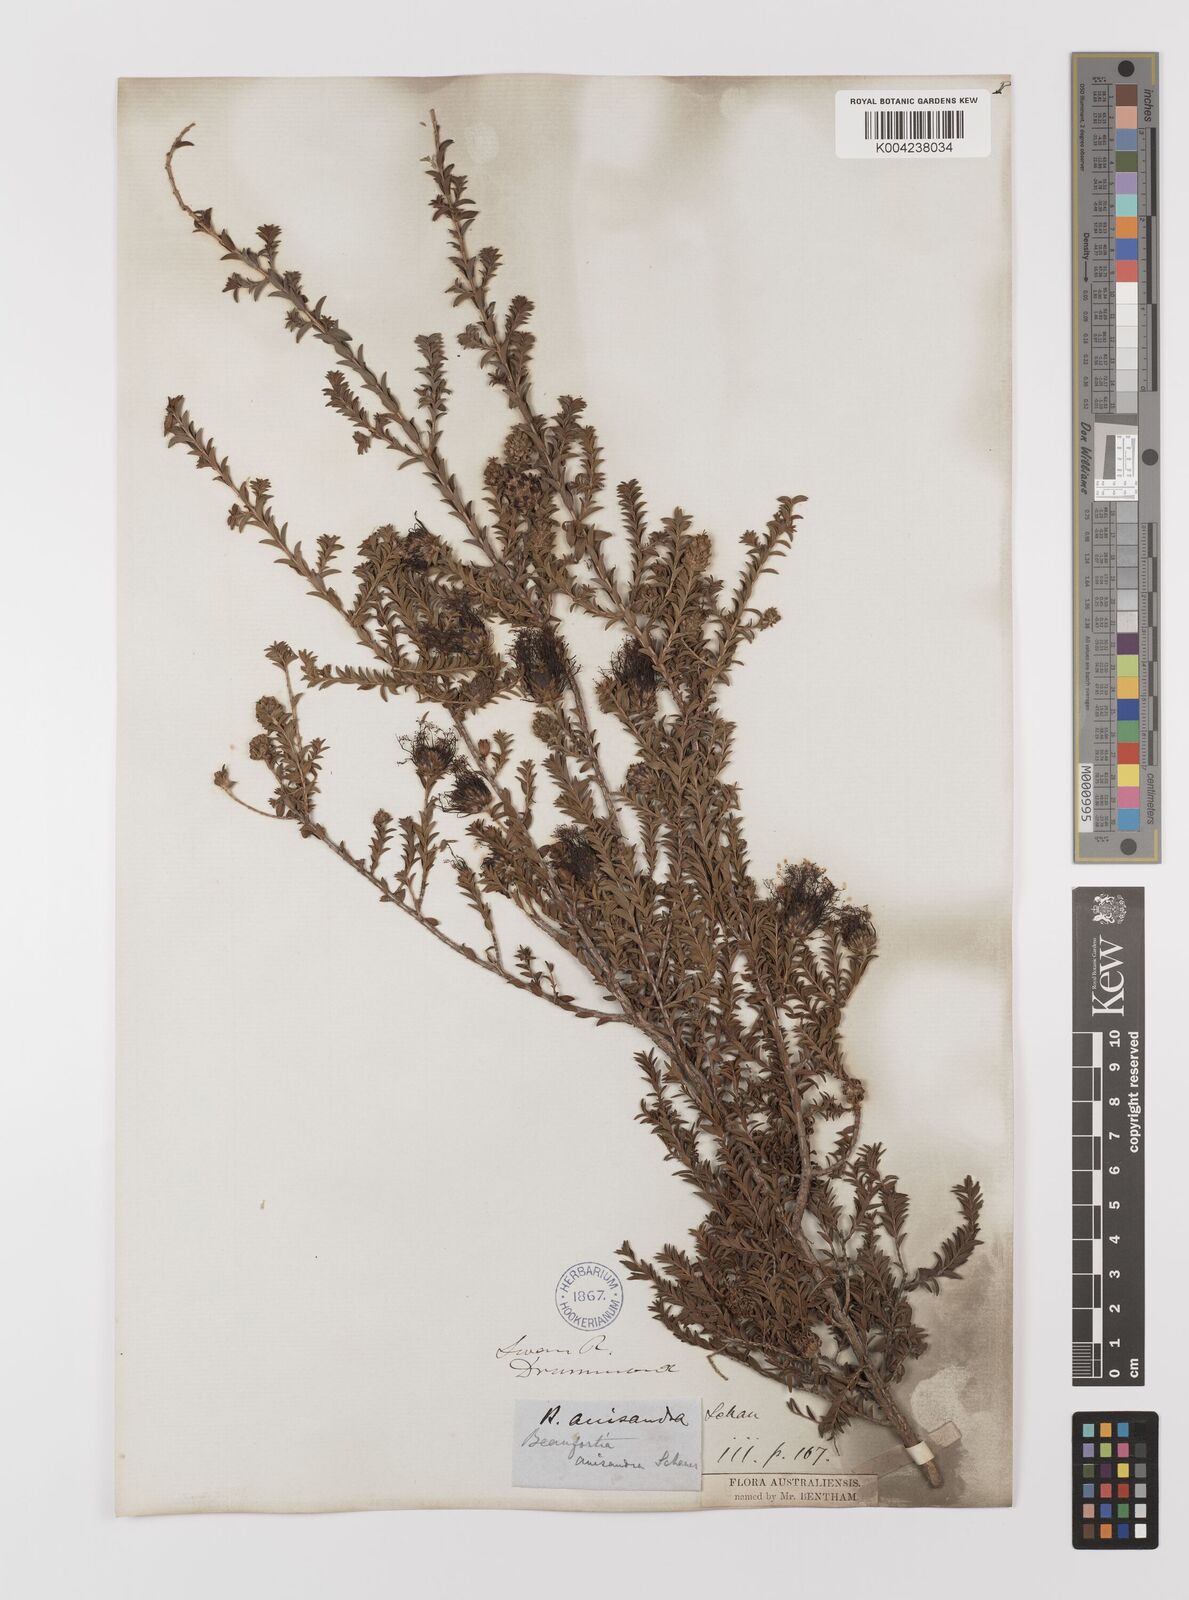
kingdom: Plantae
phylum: Tracheophyta
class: Magnoliopsida
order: Myrtales
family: Myrtaceae
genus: Melaleuca
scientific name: Melaleuca anisandra
